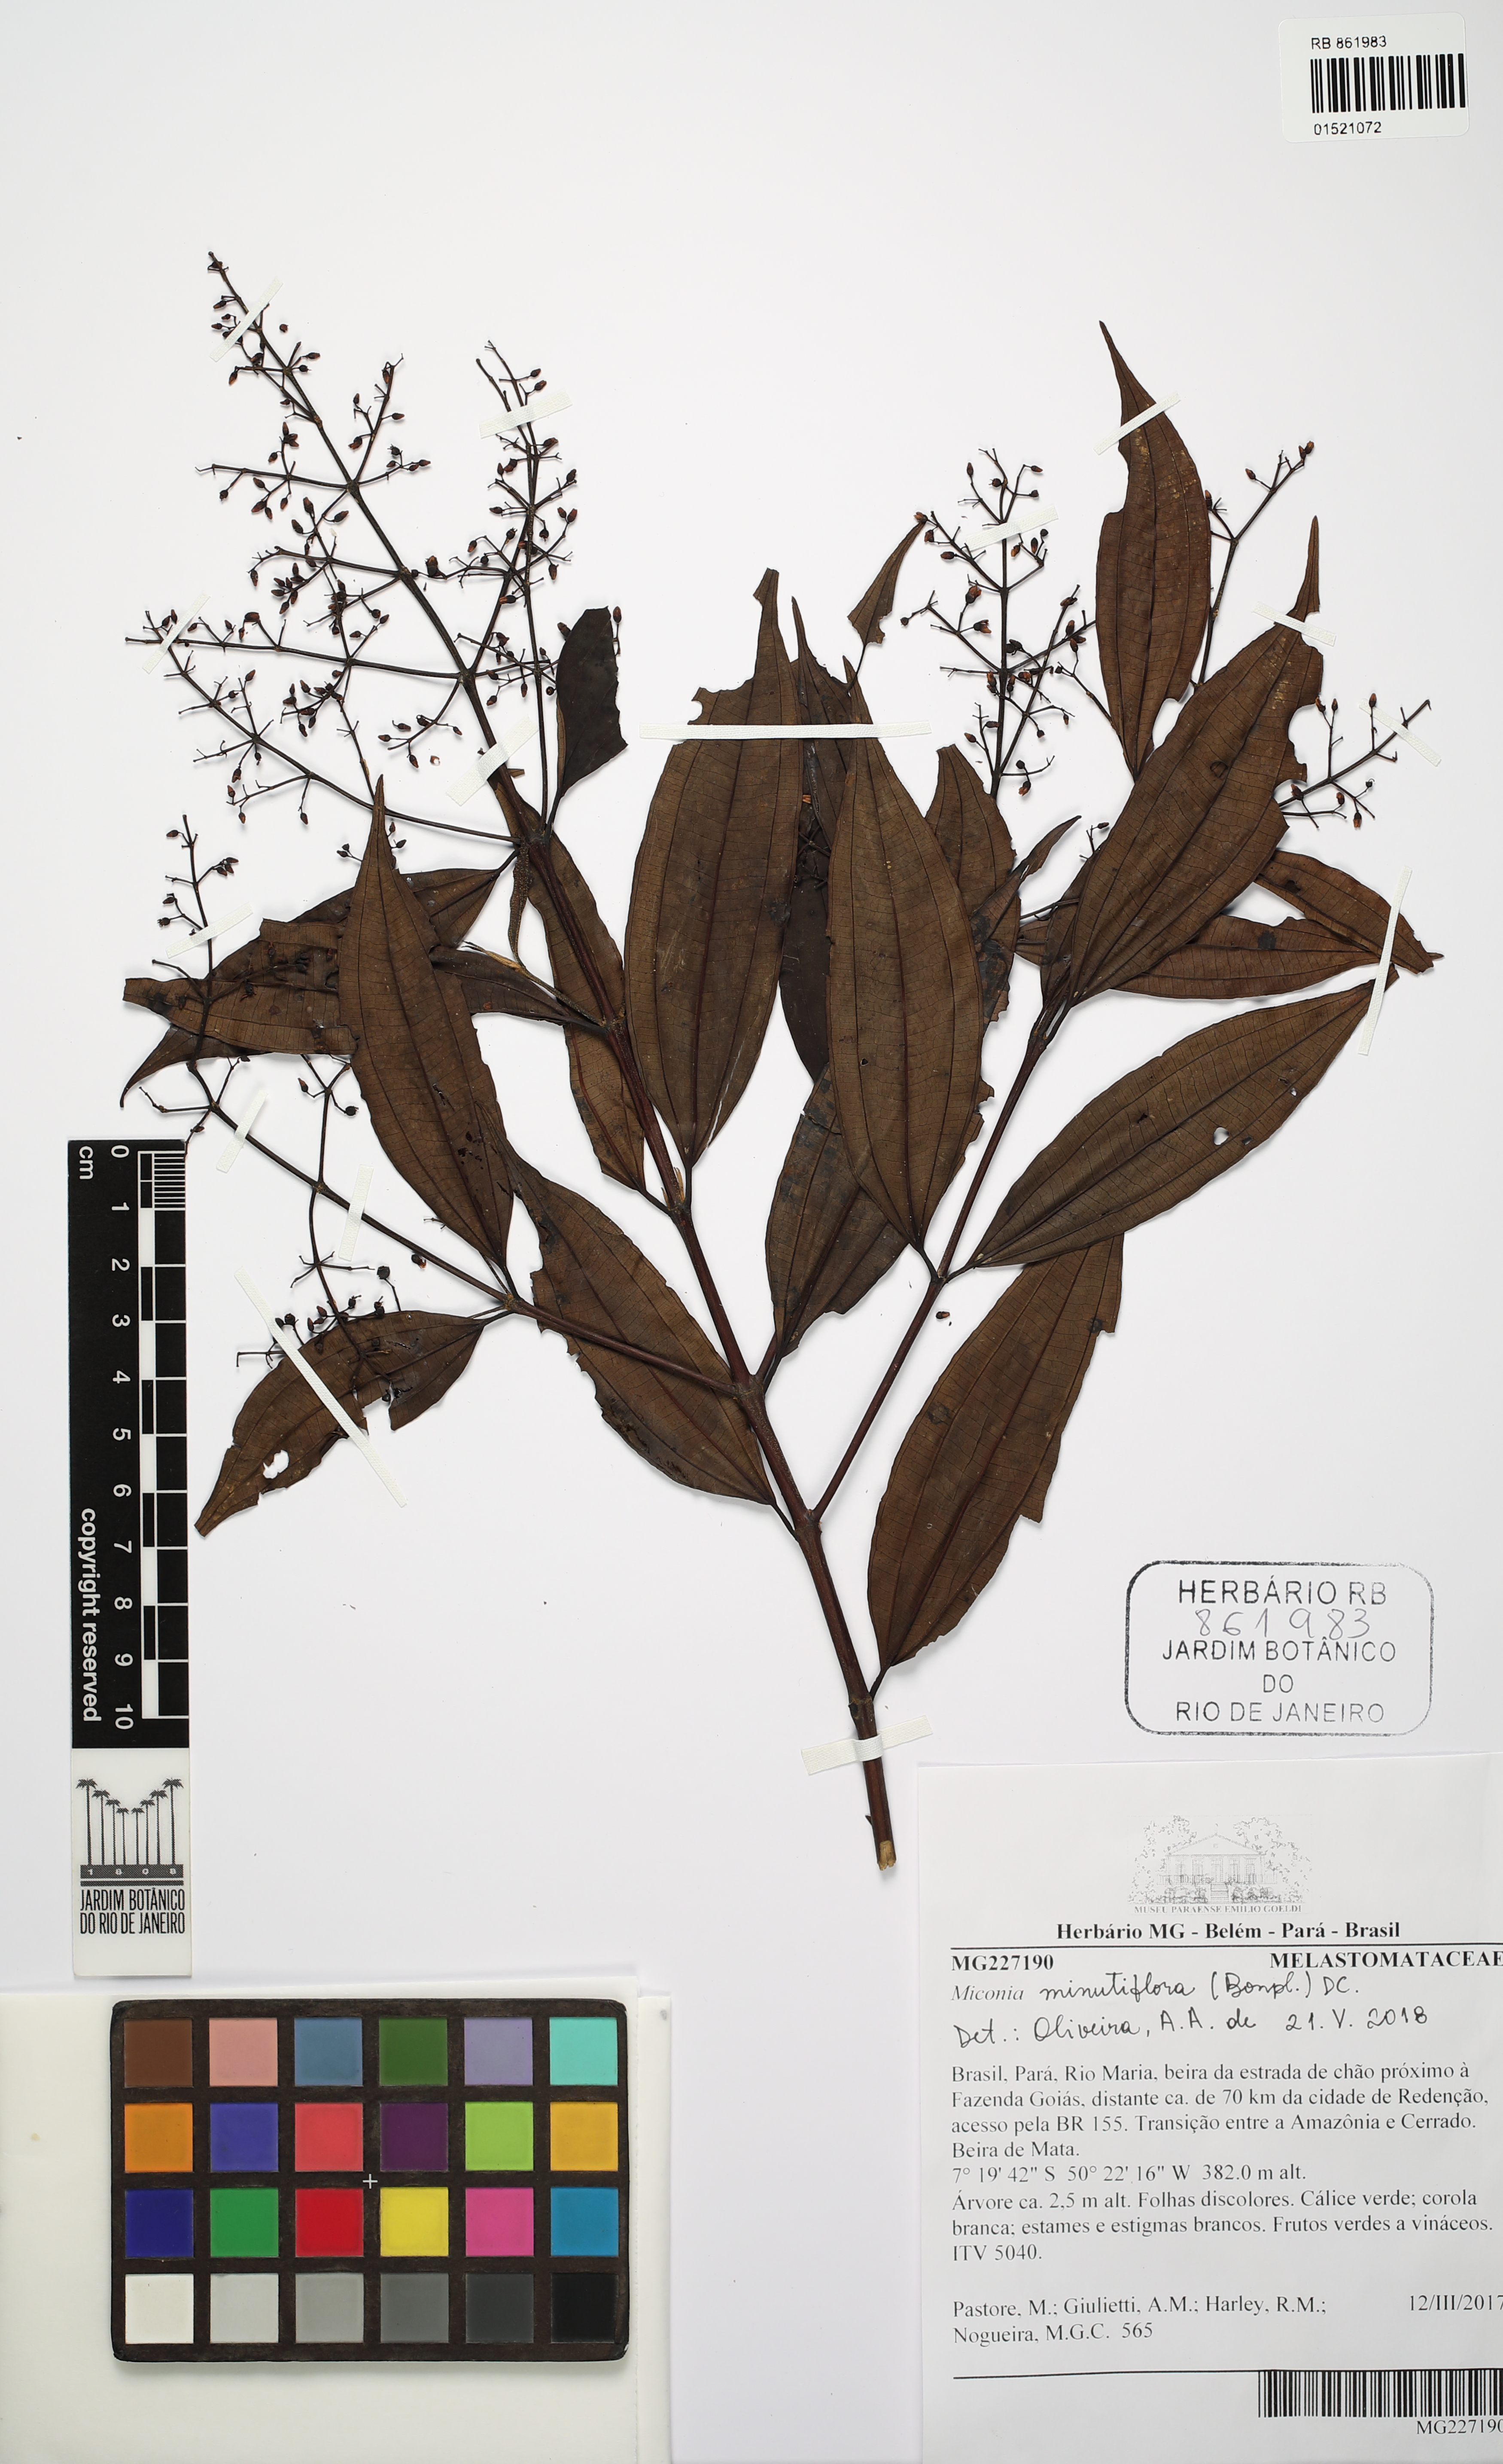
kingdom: Plantae
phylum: Tracheophyta
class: Magnoliopsida
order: Myrtales
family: Melastomataceae
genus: Miconia
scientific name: Miconia minutiflora
